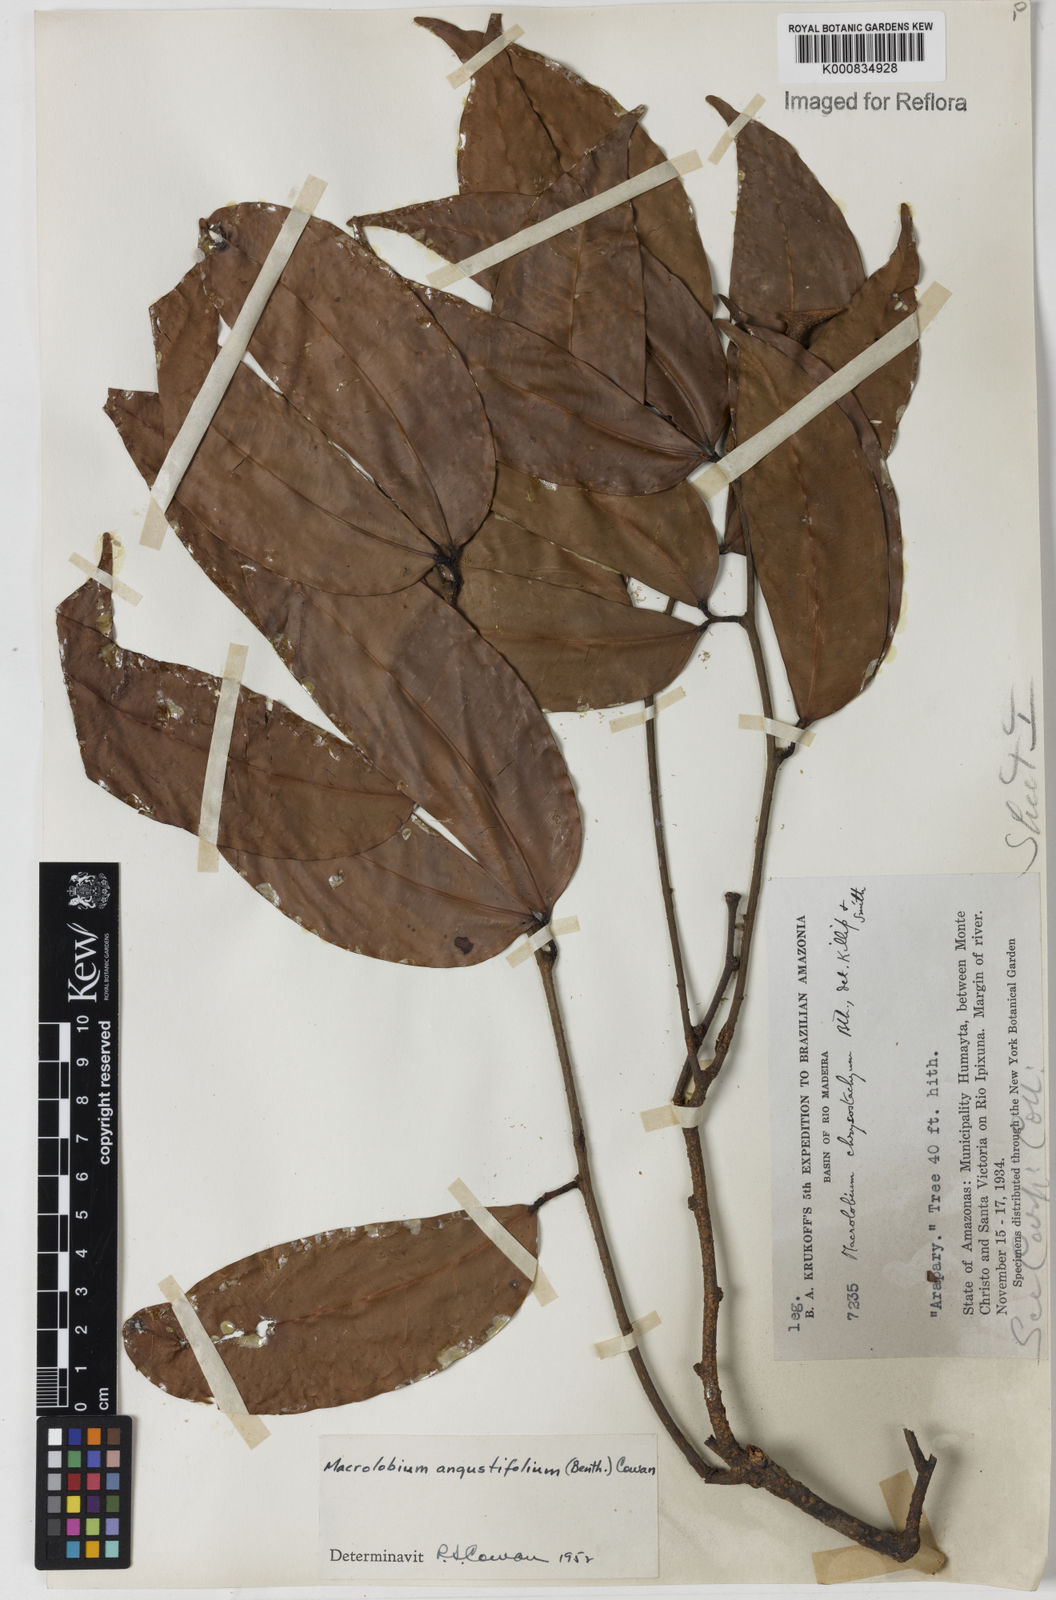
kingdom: Plantae
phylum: Tracheophyta
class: Magnoliopsida
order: Fabales
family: Fabaceae
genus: Macrolobium
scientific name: Macrolobium angustifolium
